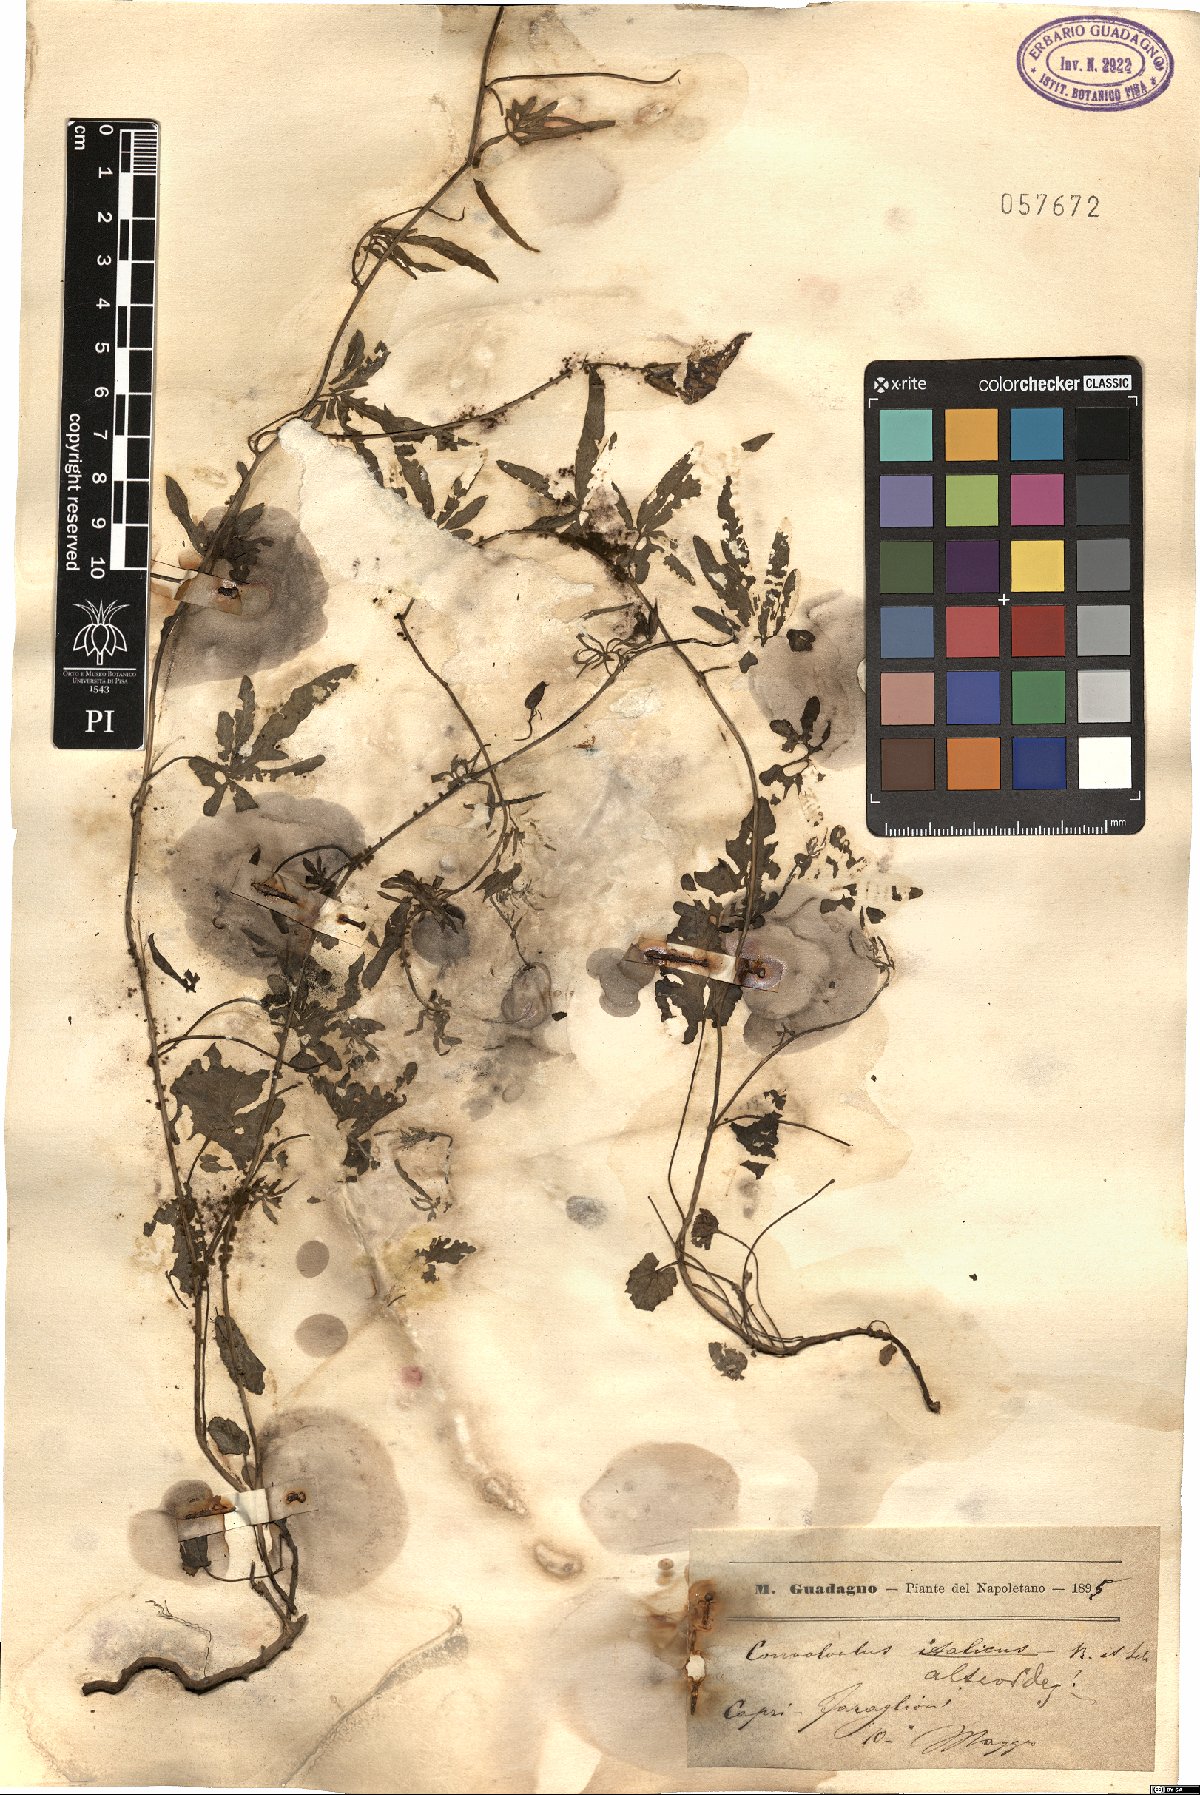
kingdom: Plantae
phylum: Tracheophyta
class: Magnoliopsida
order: Solanales
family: Convolvulaceae
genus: Convolvulus
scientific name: Convolvulus althaeoides
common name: Mallow bindweed
